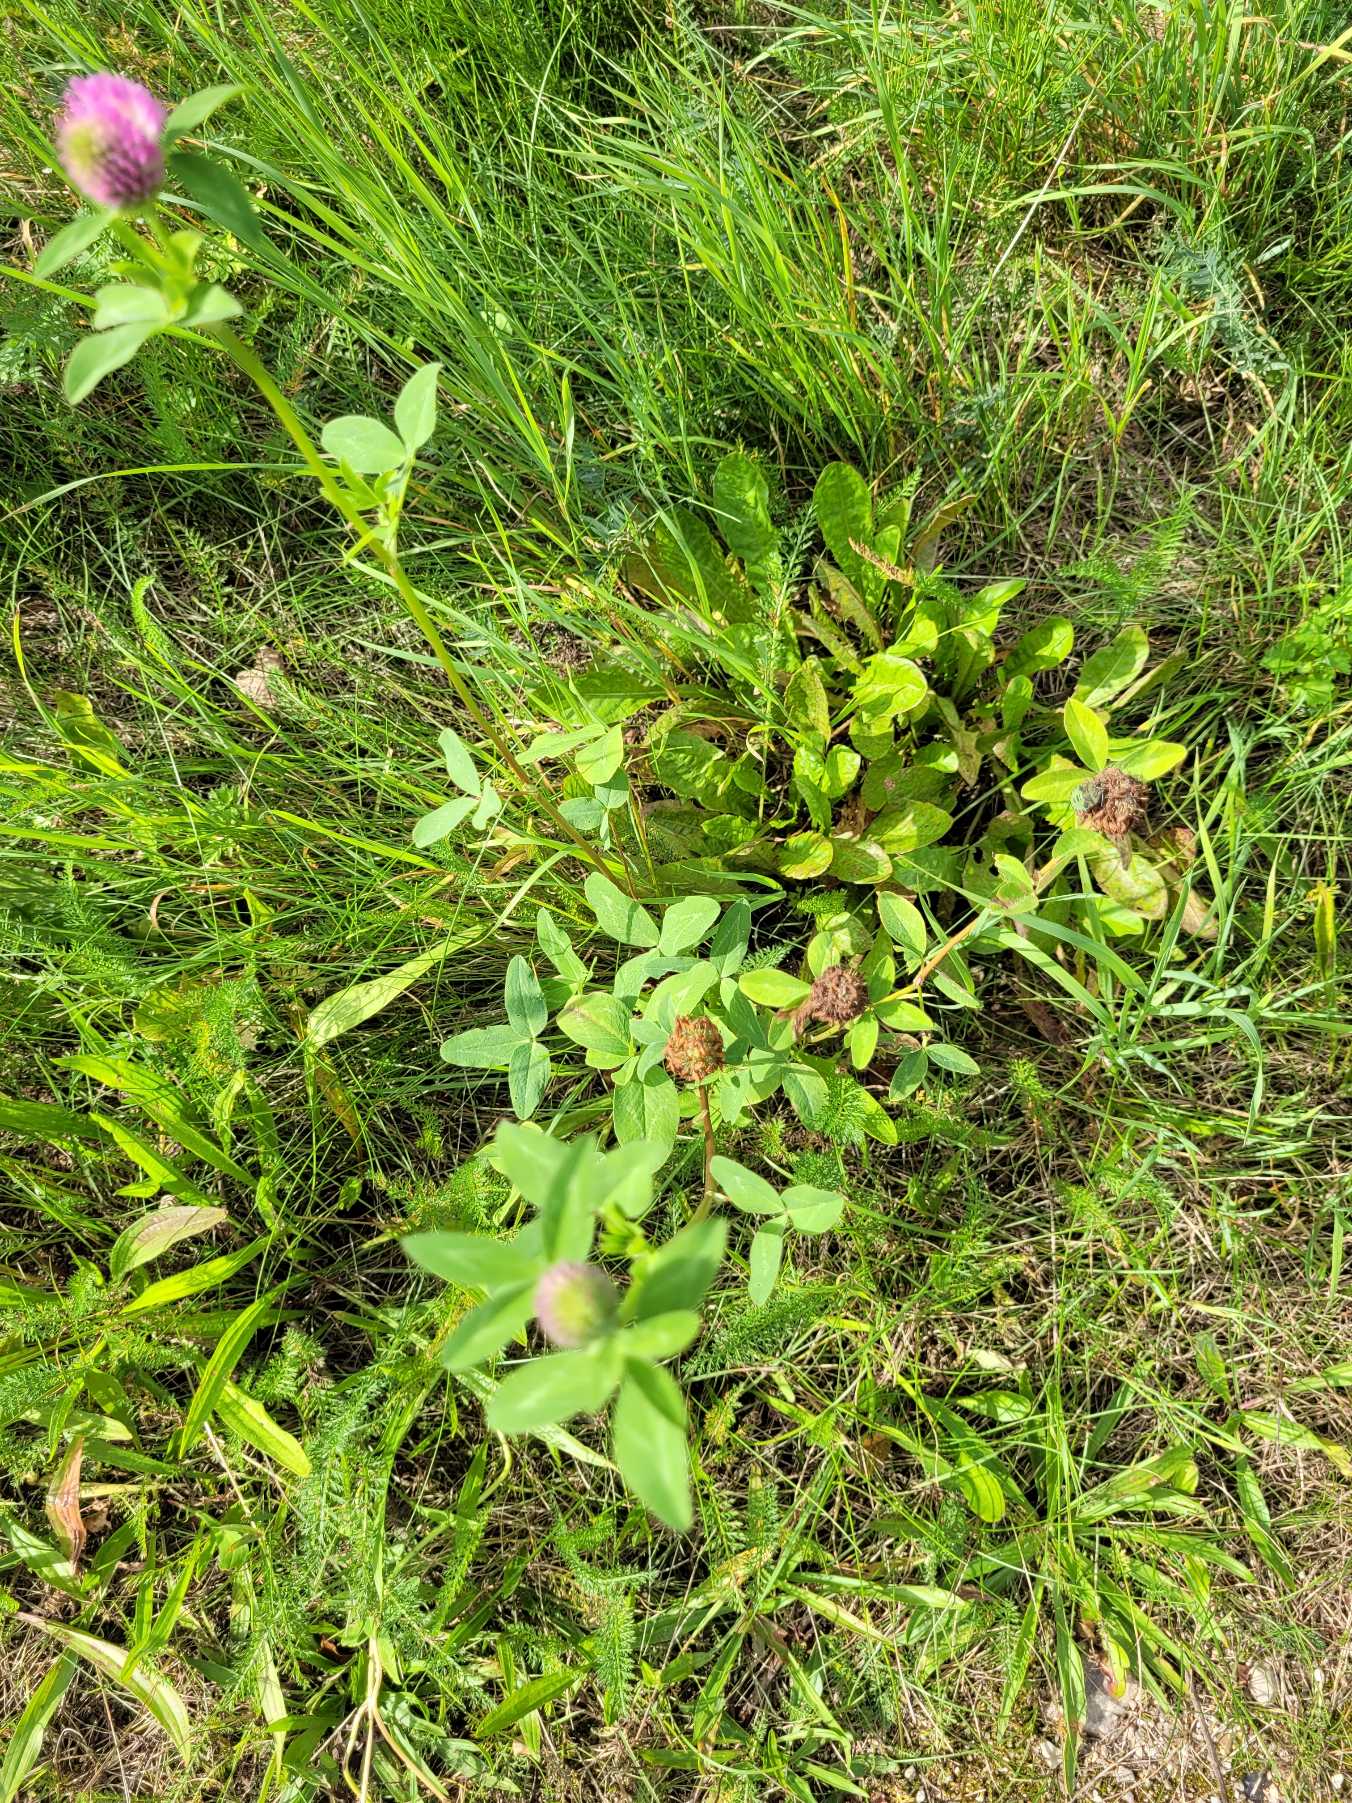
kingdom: Plantae
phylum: Tracheophyta
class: Magnoliopsida
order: Fabales
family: Fabaceae
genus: Trifolium
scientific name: Trifolium pratense
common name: Rød-kløver
